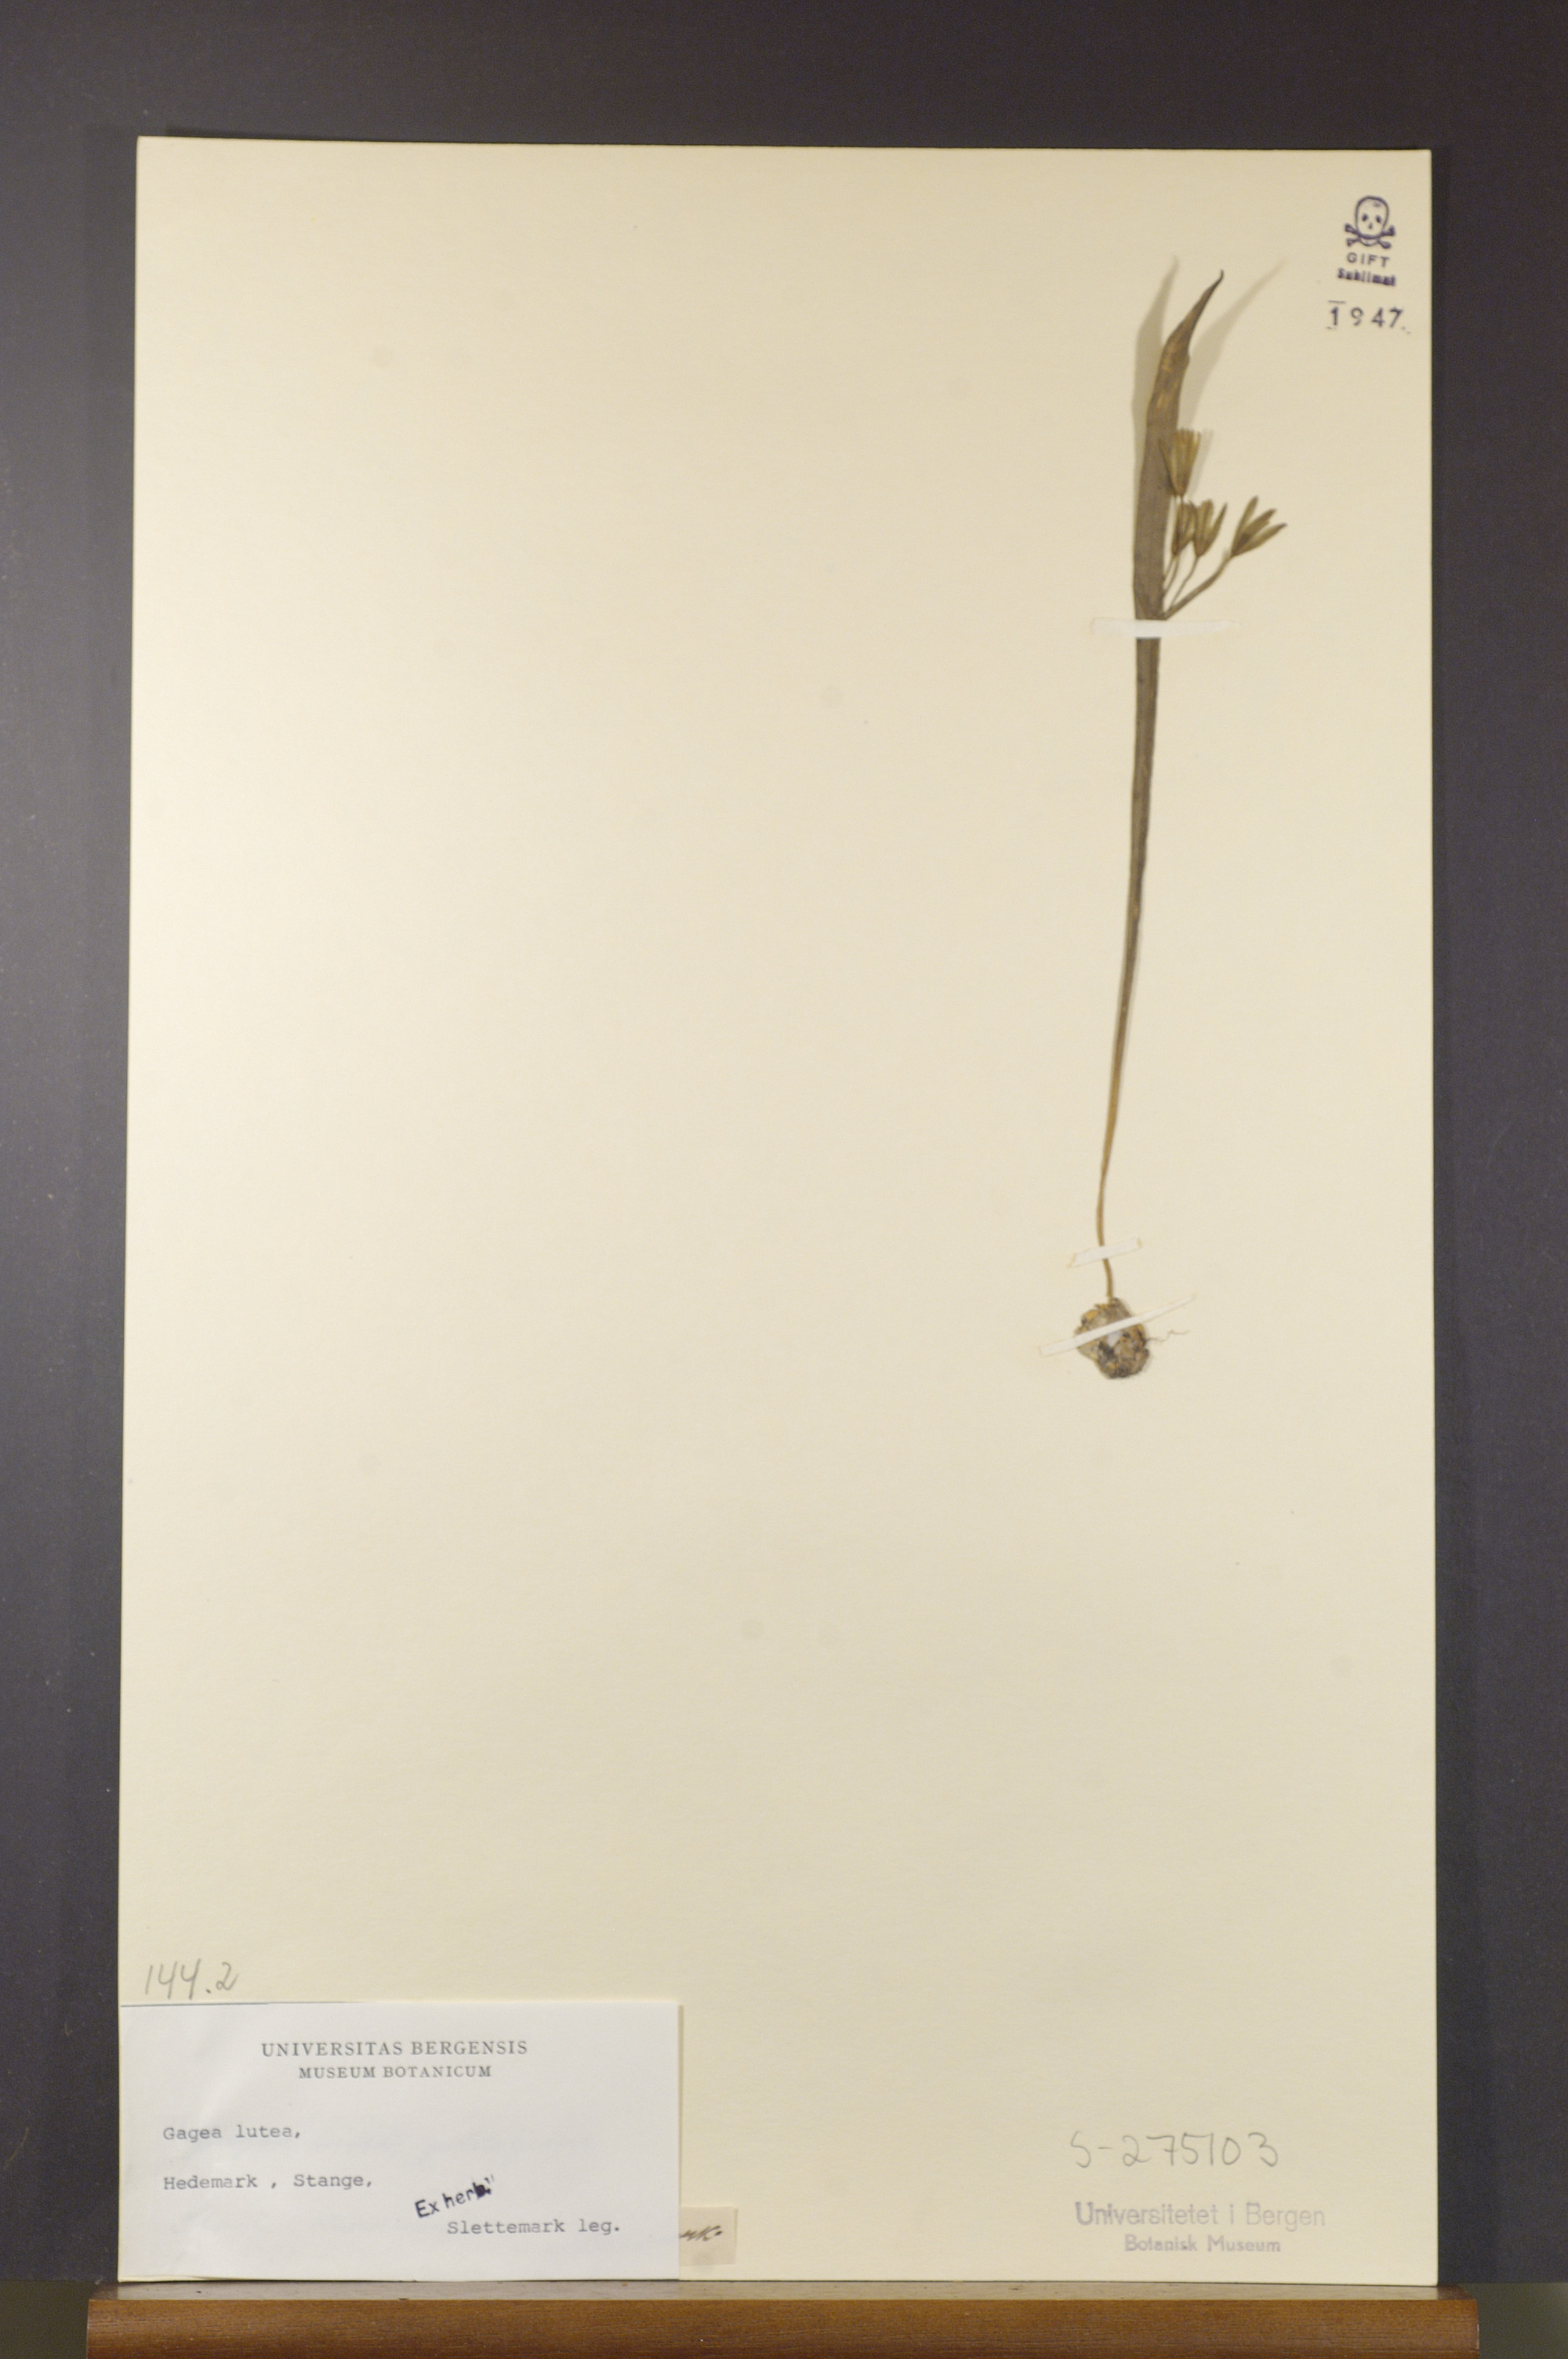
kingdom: Plantae
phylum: Tracheophyta
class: Liliopsida
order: Liliales
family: Liliaceae
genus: Gagea
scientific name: Gagea lutea
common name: Yellow star-of-bethlehem
